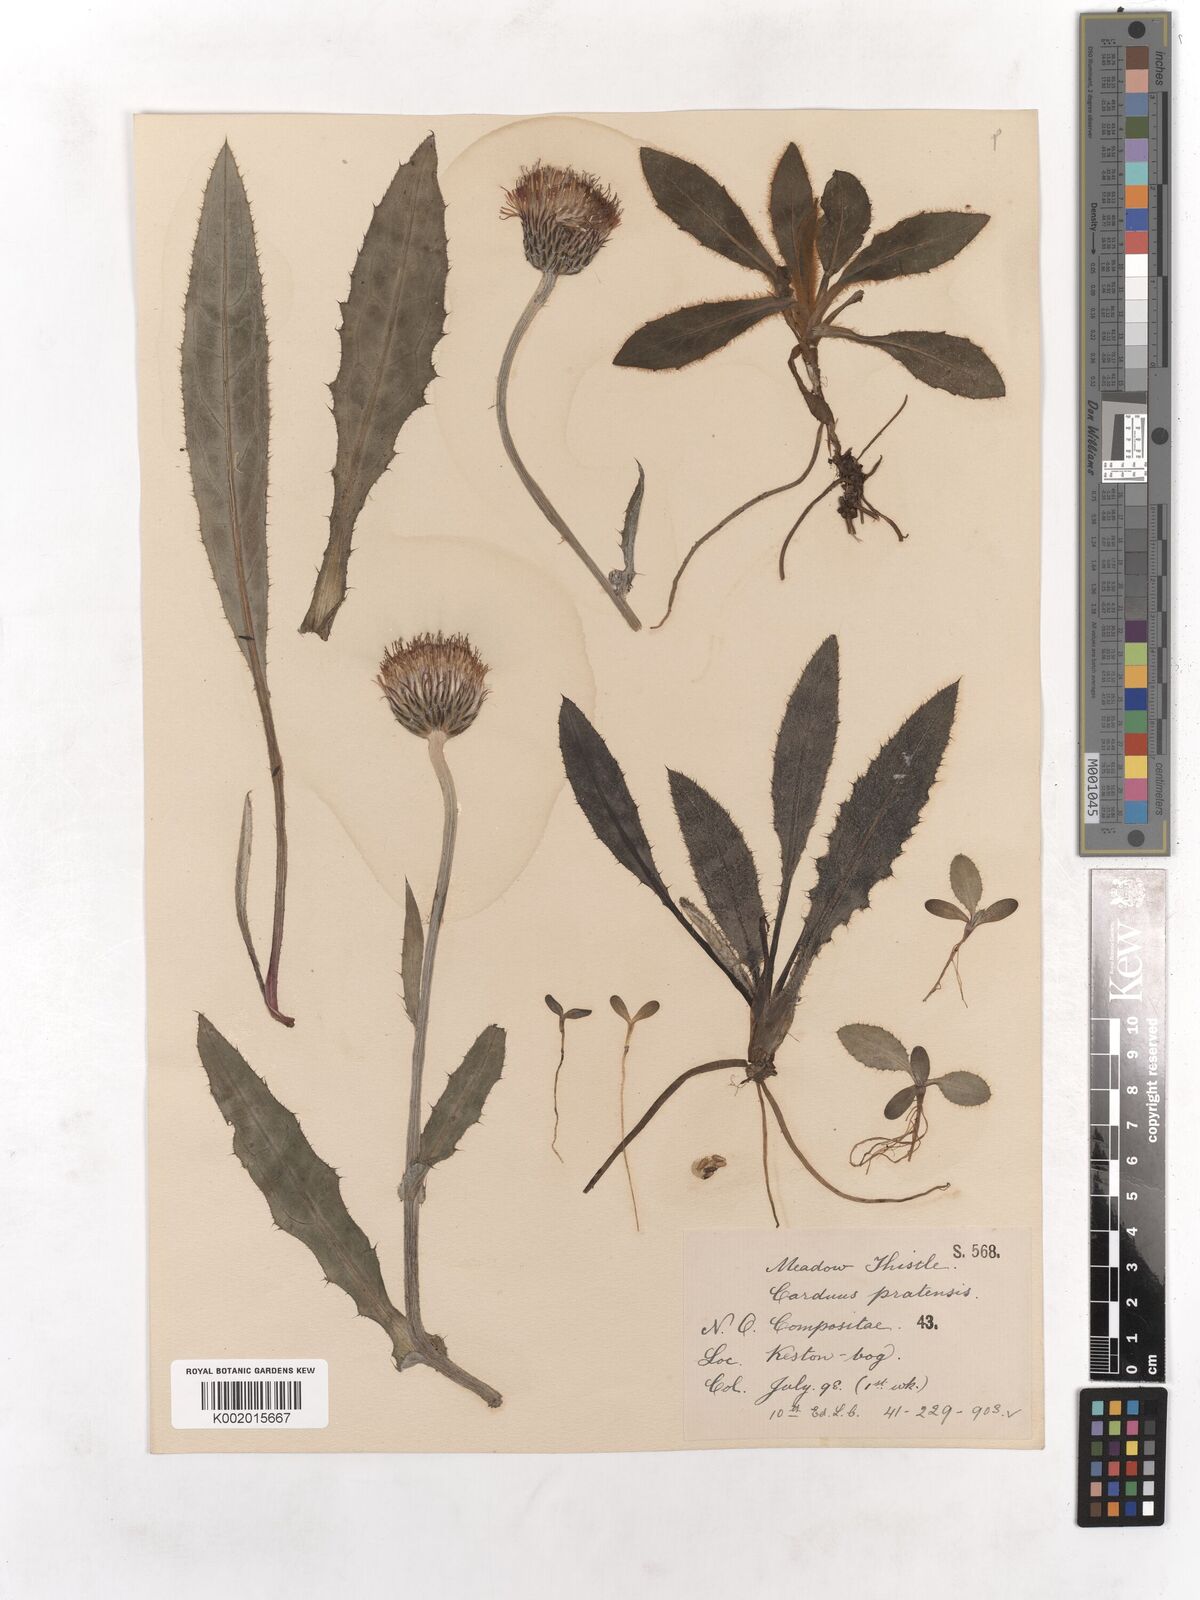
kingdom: Plantae
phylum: Tracheophyta
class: Magnoliopsida
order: Asterales
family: Asteraceae
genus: Cirsium
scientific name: Cirsium dissectum
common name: Meadow thistle
